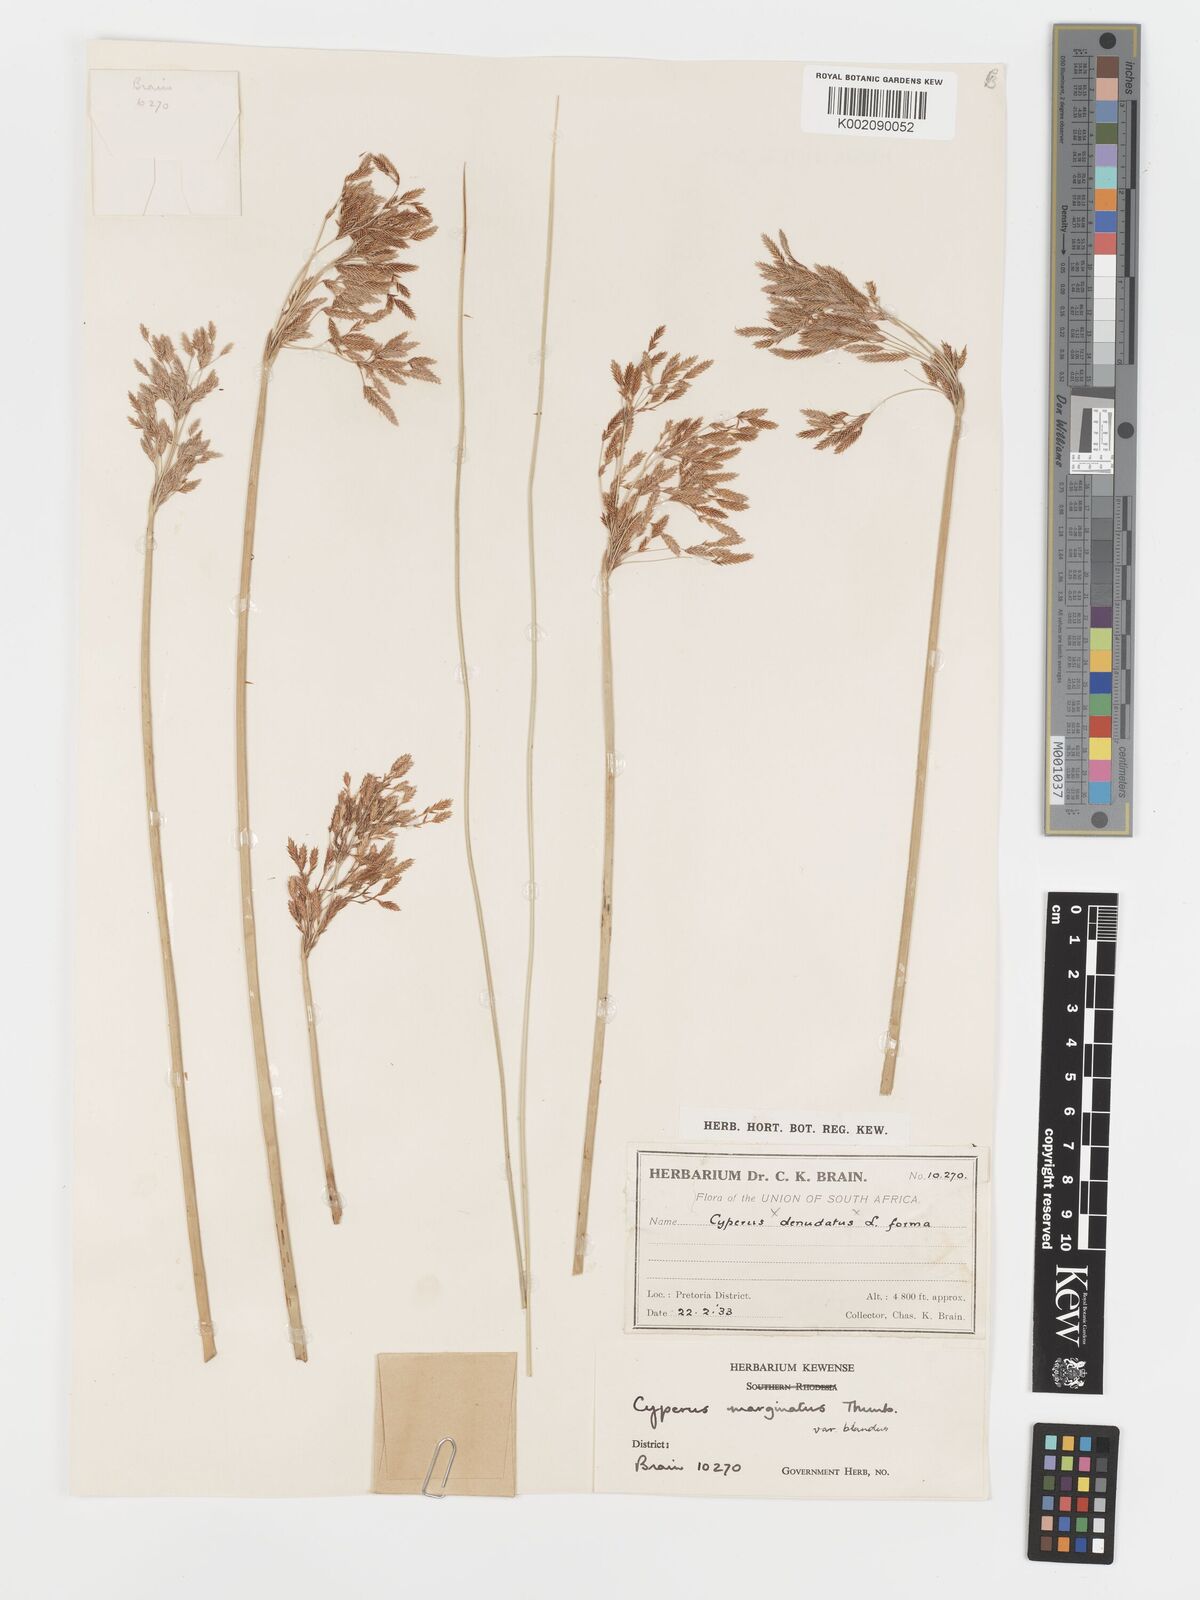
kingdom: Plantae
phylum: Tracheophyta
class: Liliopsida
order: Poales
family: Cyperaceae
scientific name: Cyperaceae
